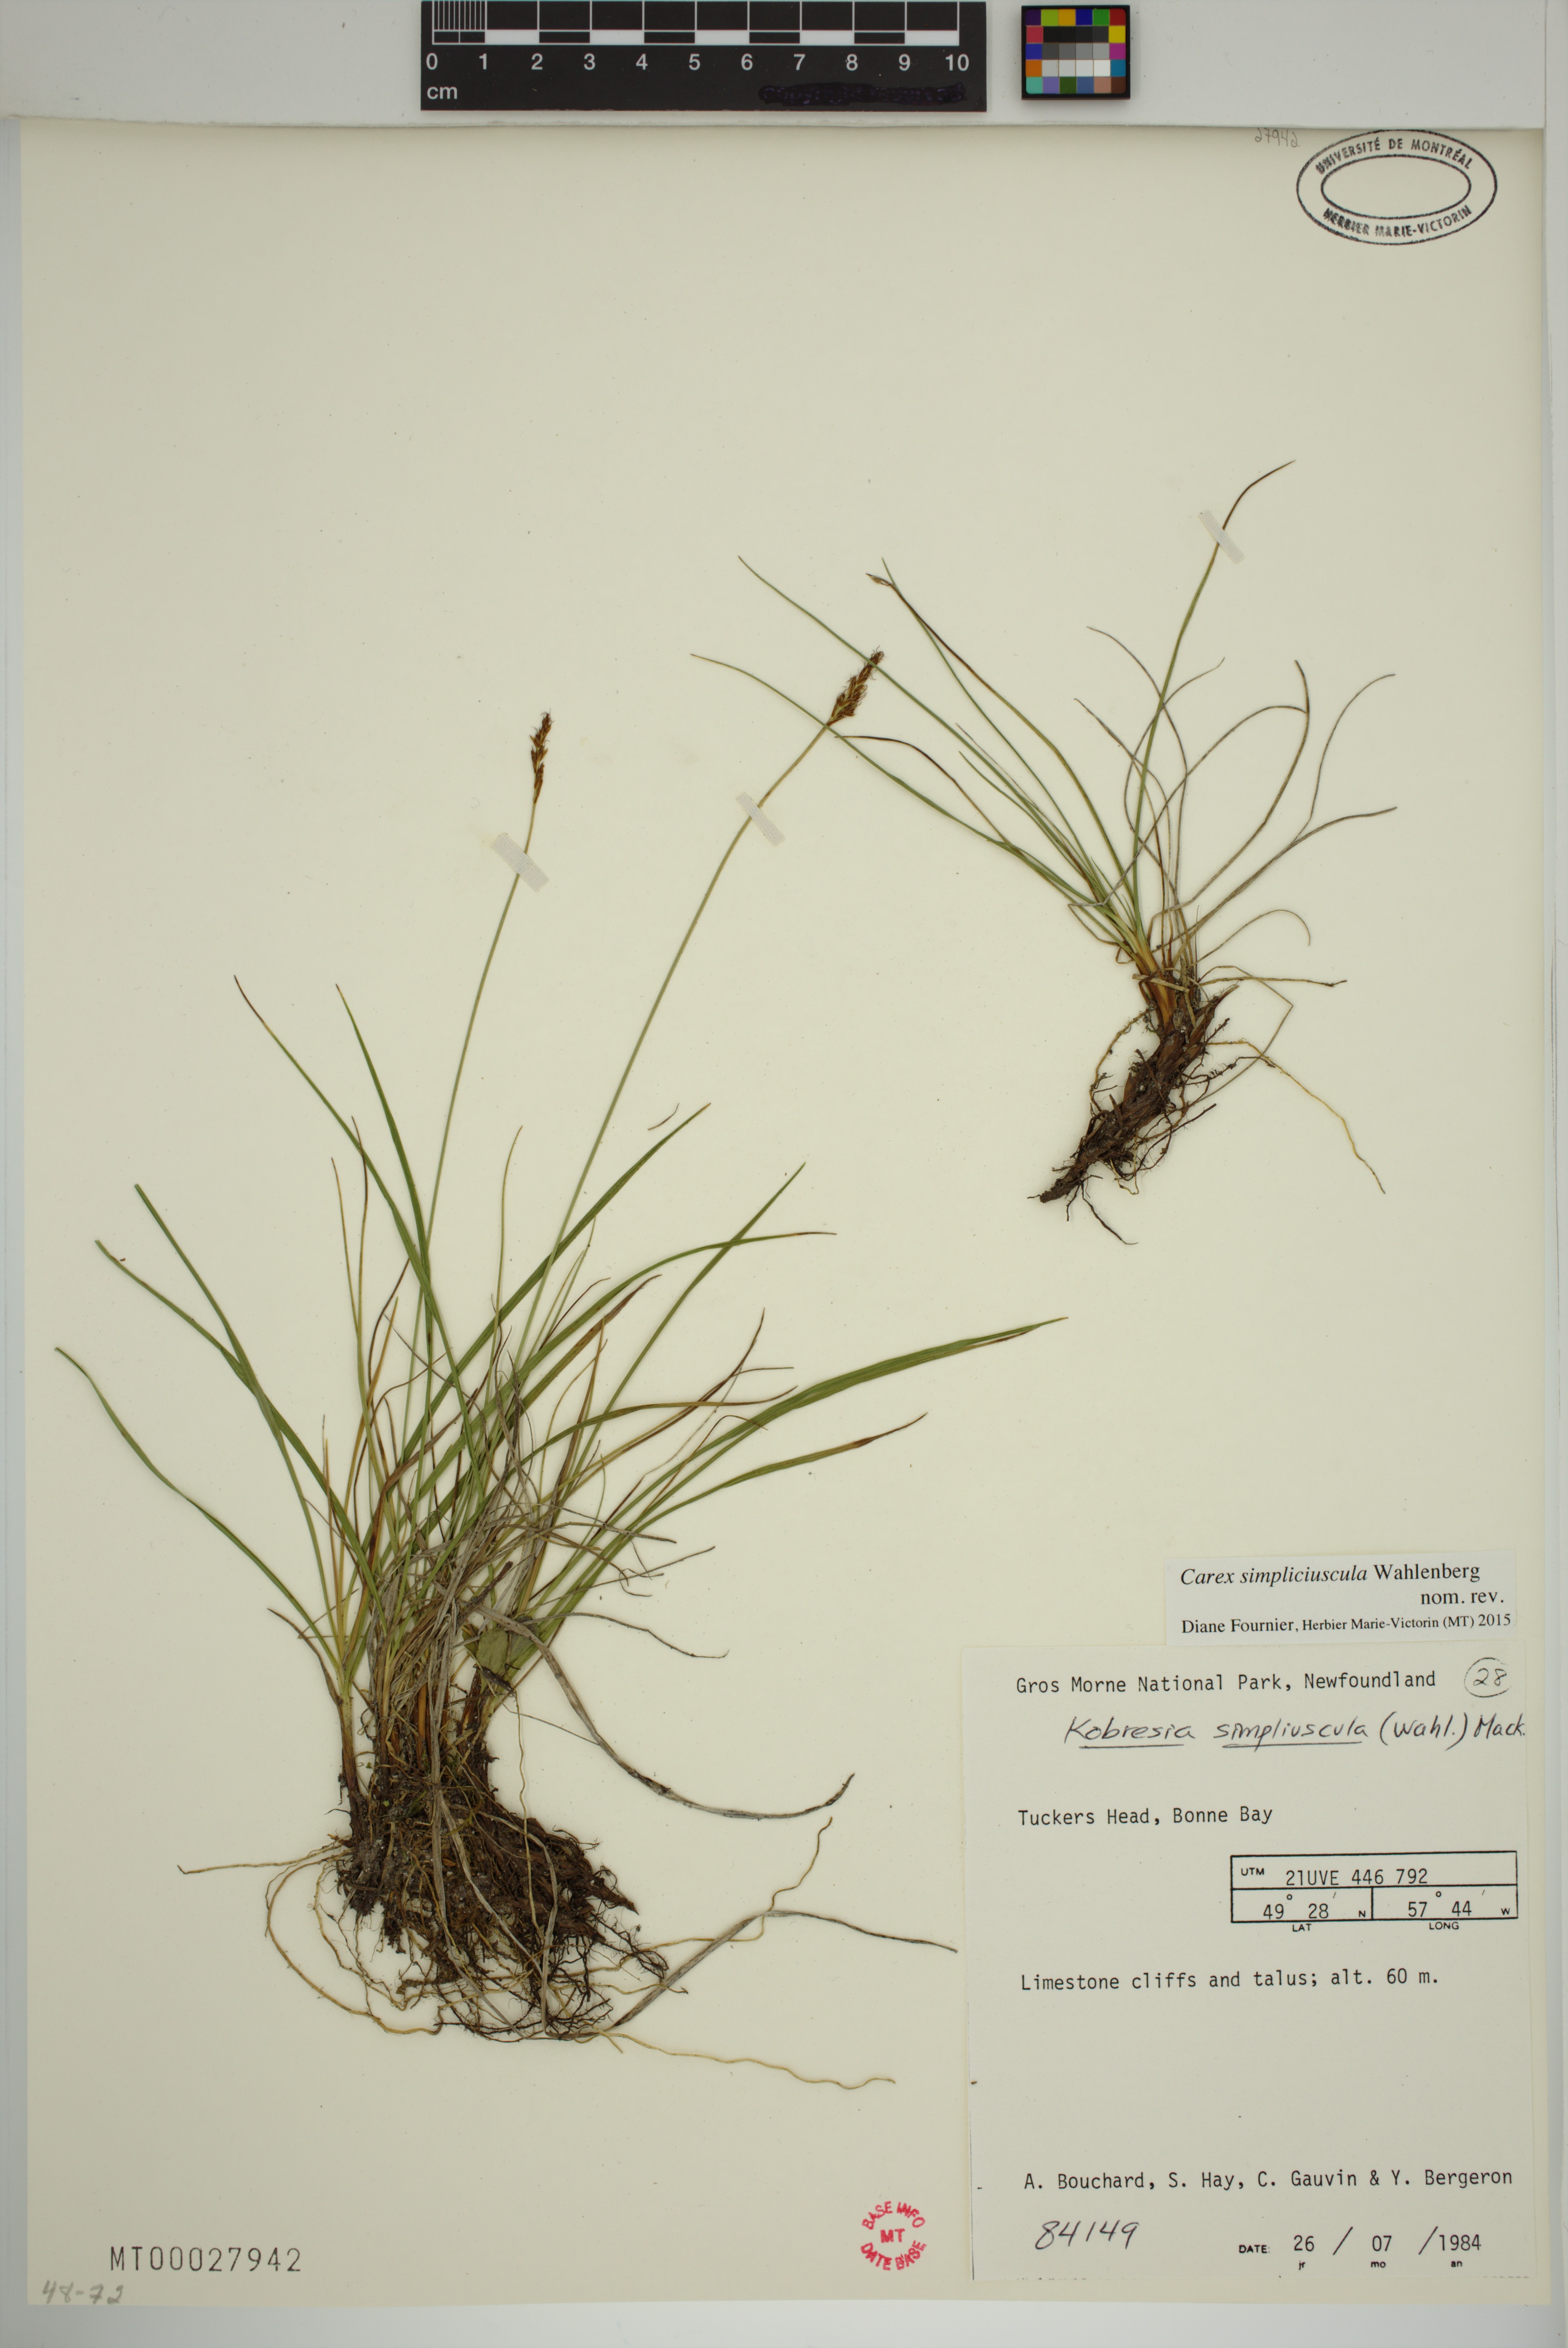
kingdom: Plantae
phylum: Tracheophyta
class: Liliopsida
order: Poales
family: Cyperaceae
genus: Carex
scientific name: Carex simpliciuscula
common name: Simple bog sedge
